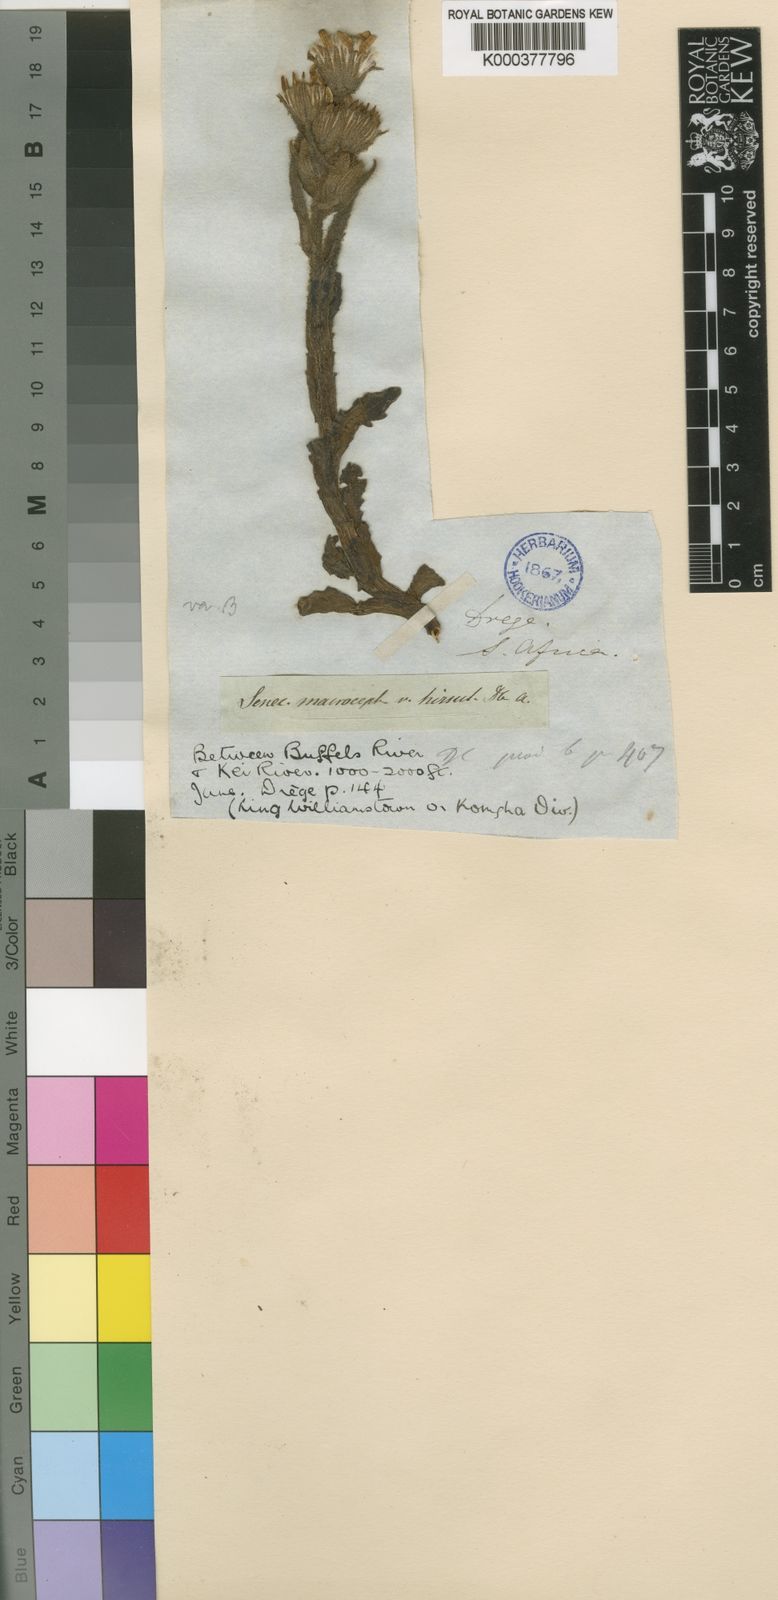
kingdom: Plantae
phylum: Tracheophyta
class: Magnoliopsida
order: Asterales
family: Asteraceae
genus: Senecio
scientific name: Senecio macrocephalus
